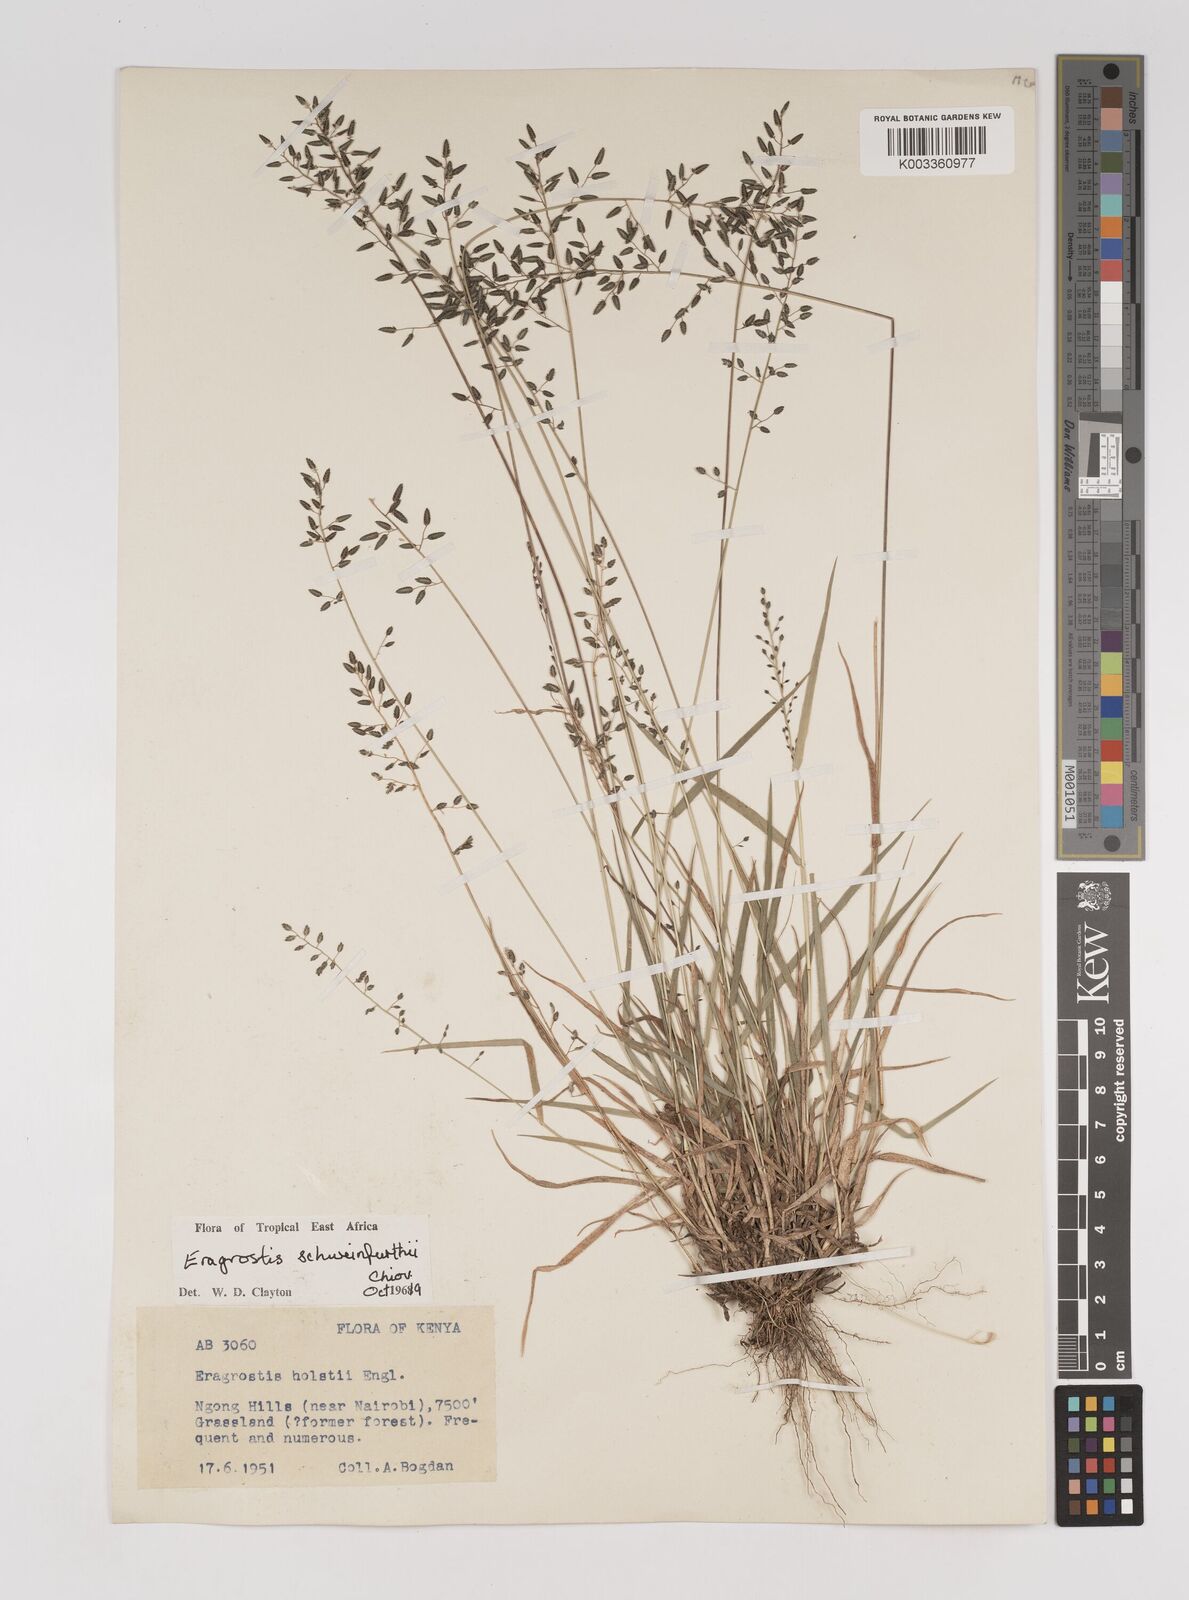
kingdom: Plantae
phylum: Tracheophyta
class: Liliopsida
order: Poales
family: Poaceae
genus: Eragrostis
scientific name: Eragrostis schweinfurthii
